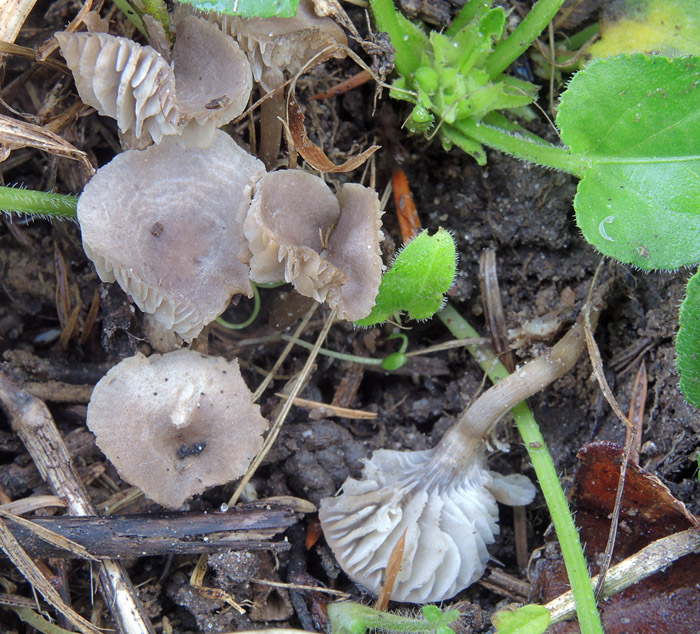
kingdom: Fungi
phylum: Basidiomycota
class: Agaricomycetes
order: Agaricales
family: Tricholomataceae
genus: Dermoloma
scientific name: Dermoloma pseudocuneifolium
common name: mark-nonnehat
